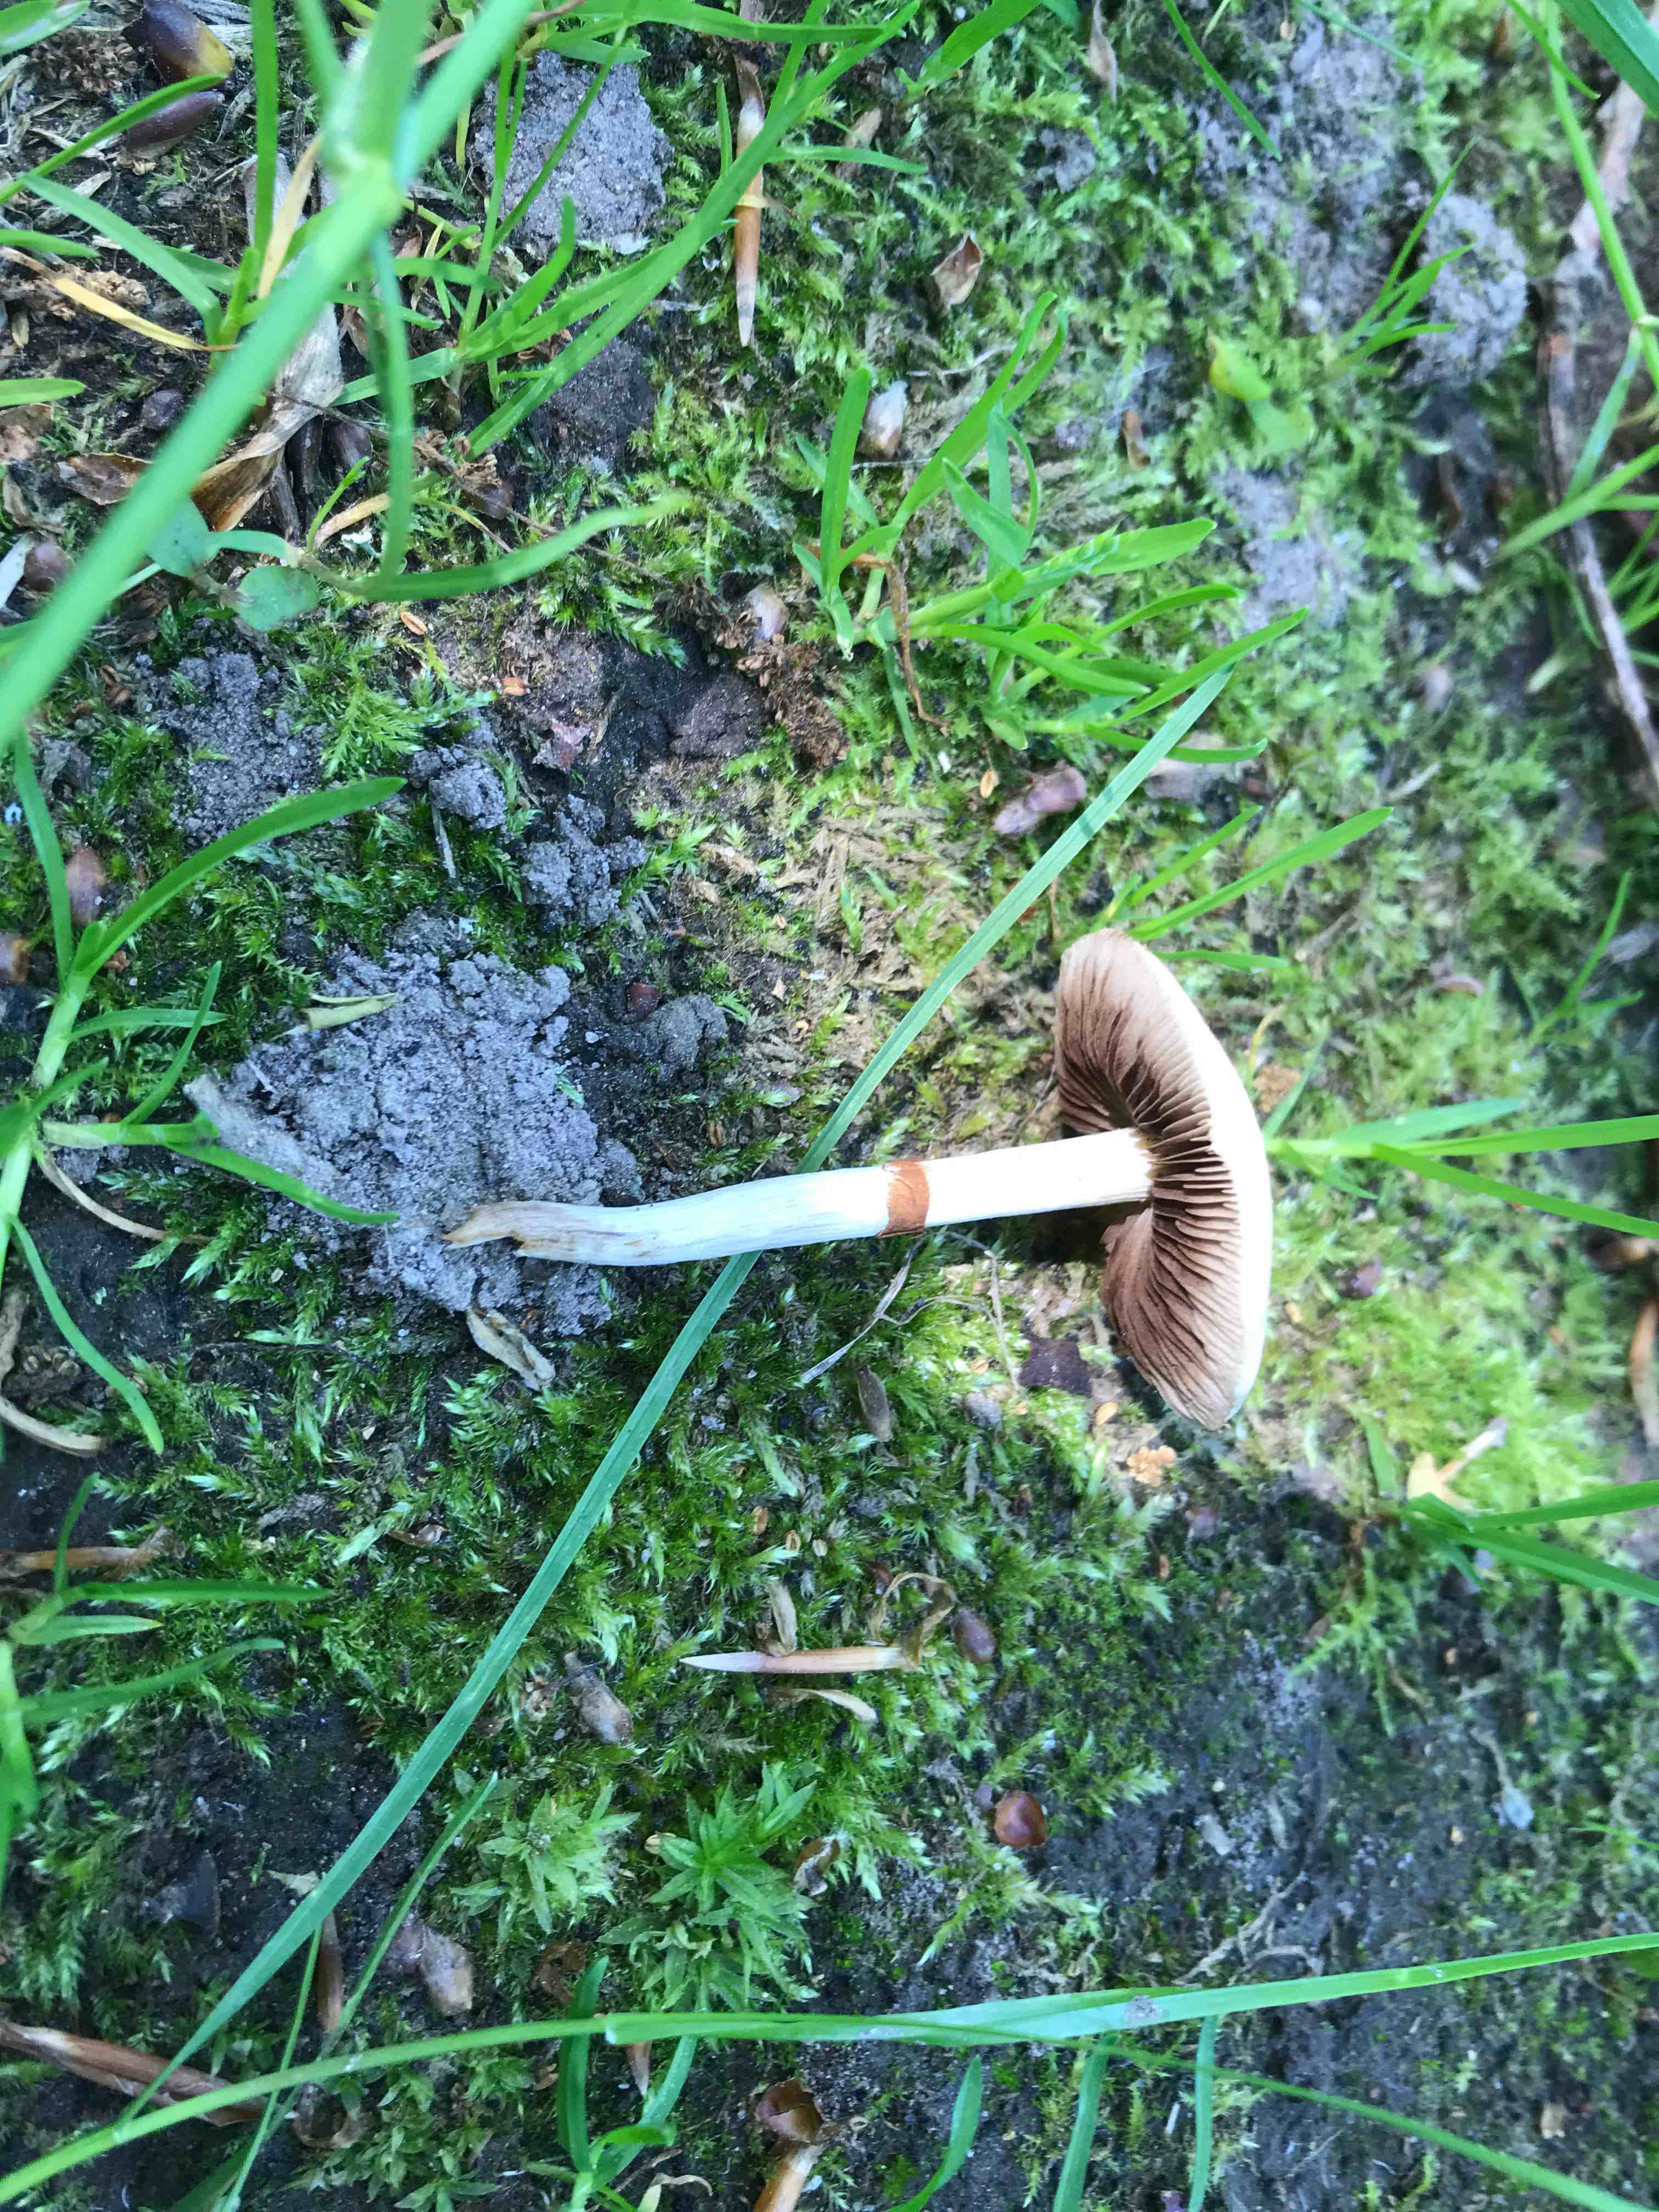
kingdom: Fungi
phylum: Basidiomycota
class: Agaricomycetes
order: Agaricales
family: Strophariaceae
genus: Agrocybe
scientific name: Agrocybe
